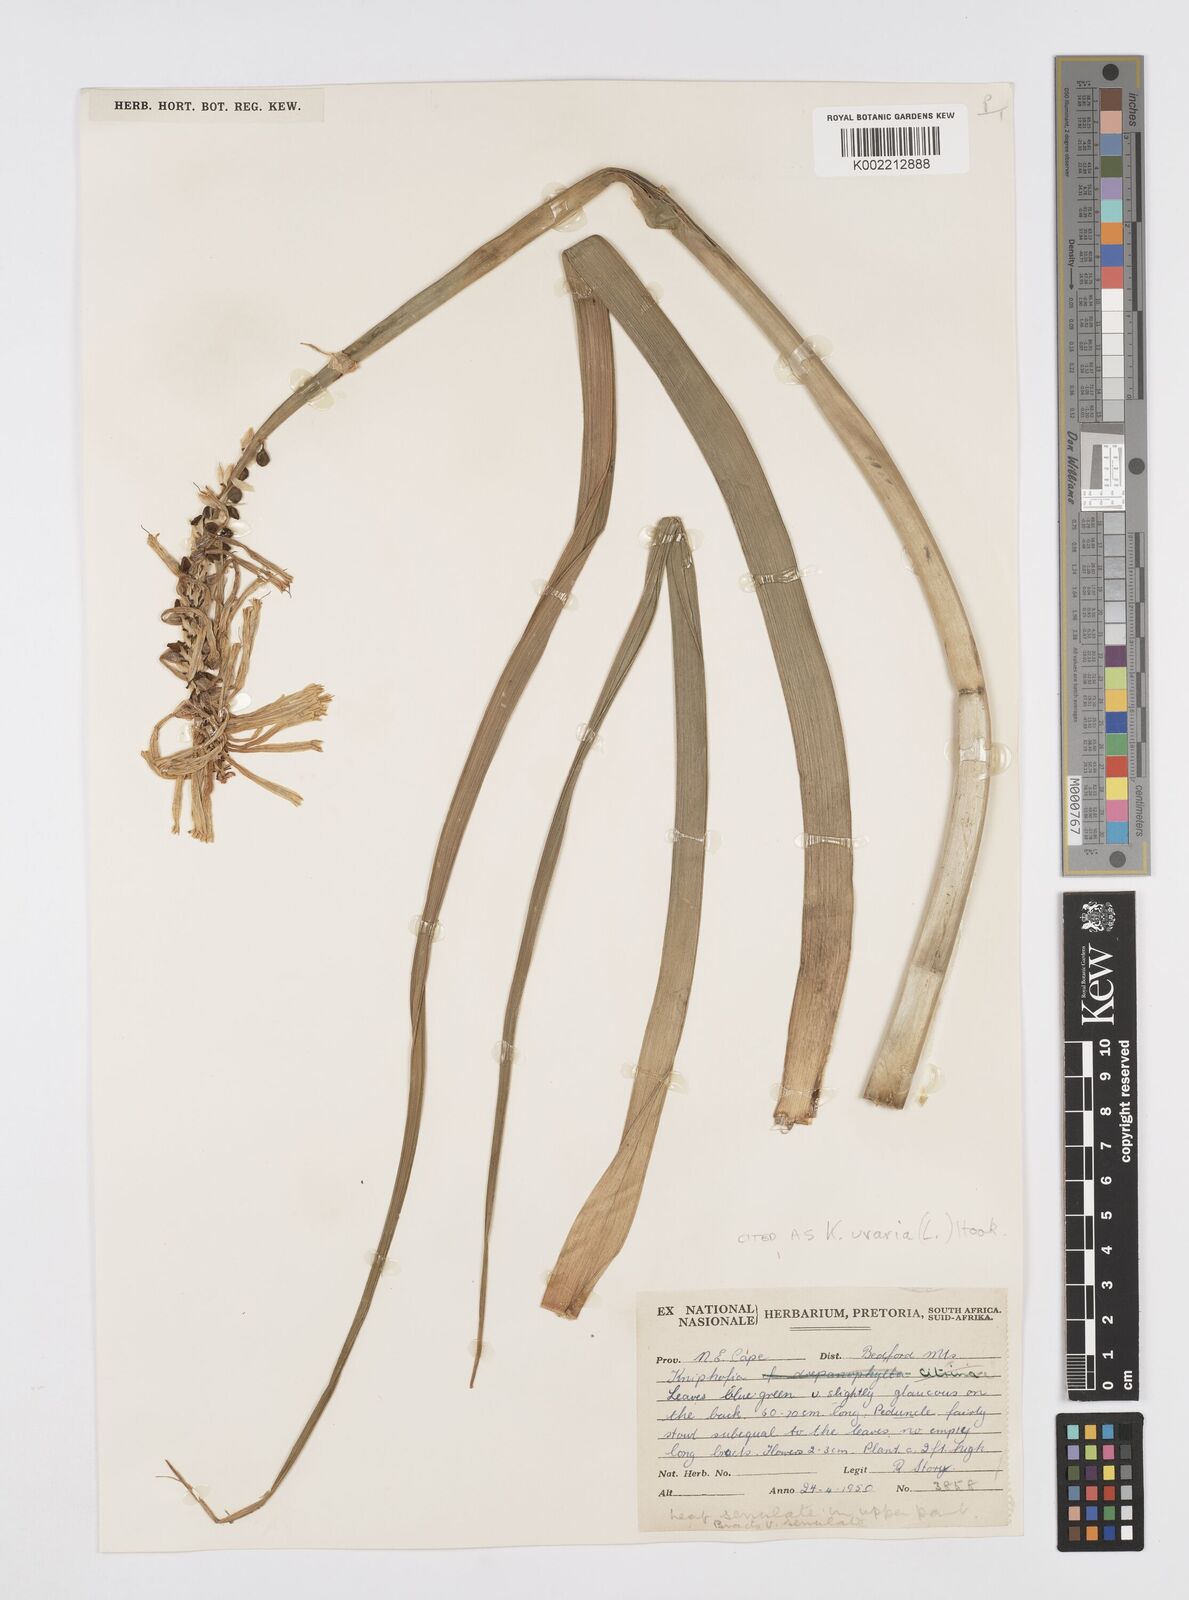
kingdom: Plantae
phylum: Tracheophyta
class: Liliopsida
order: Asparagales
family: Asphodelaceae
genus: Kniphofia
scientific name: Kniphofia uvaria
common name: Red-hot-poker
